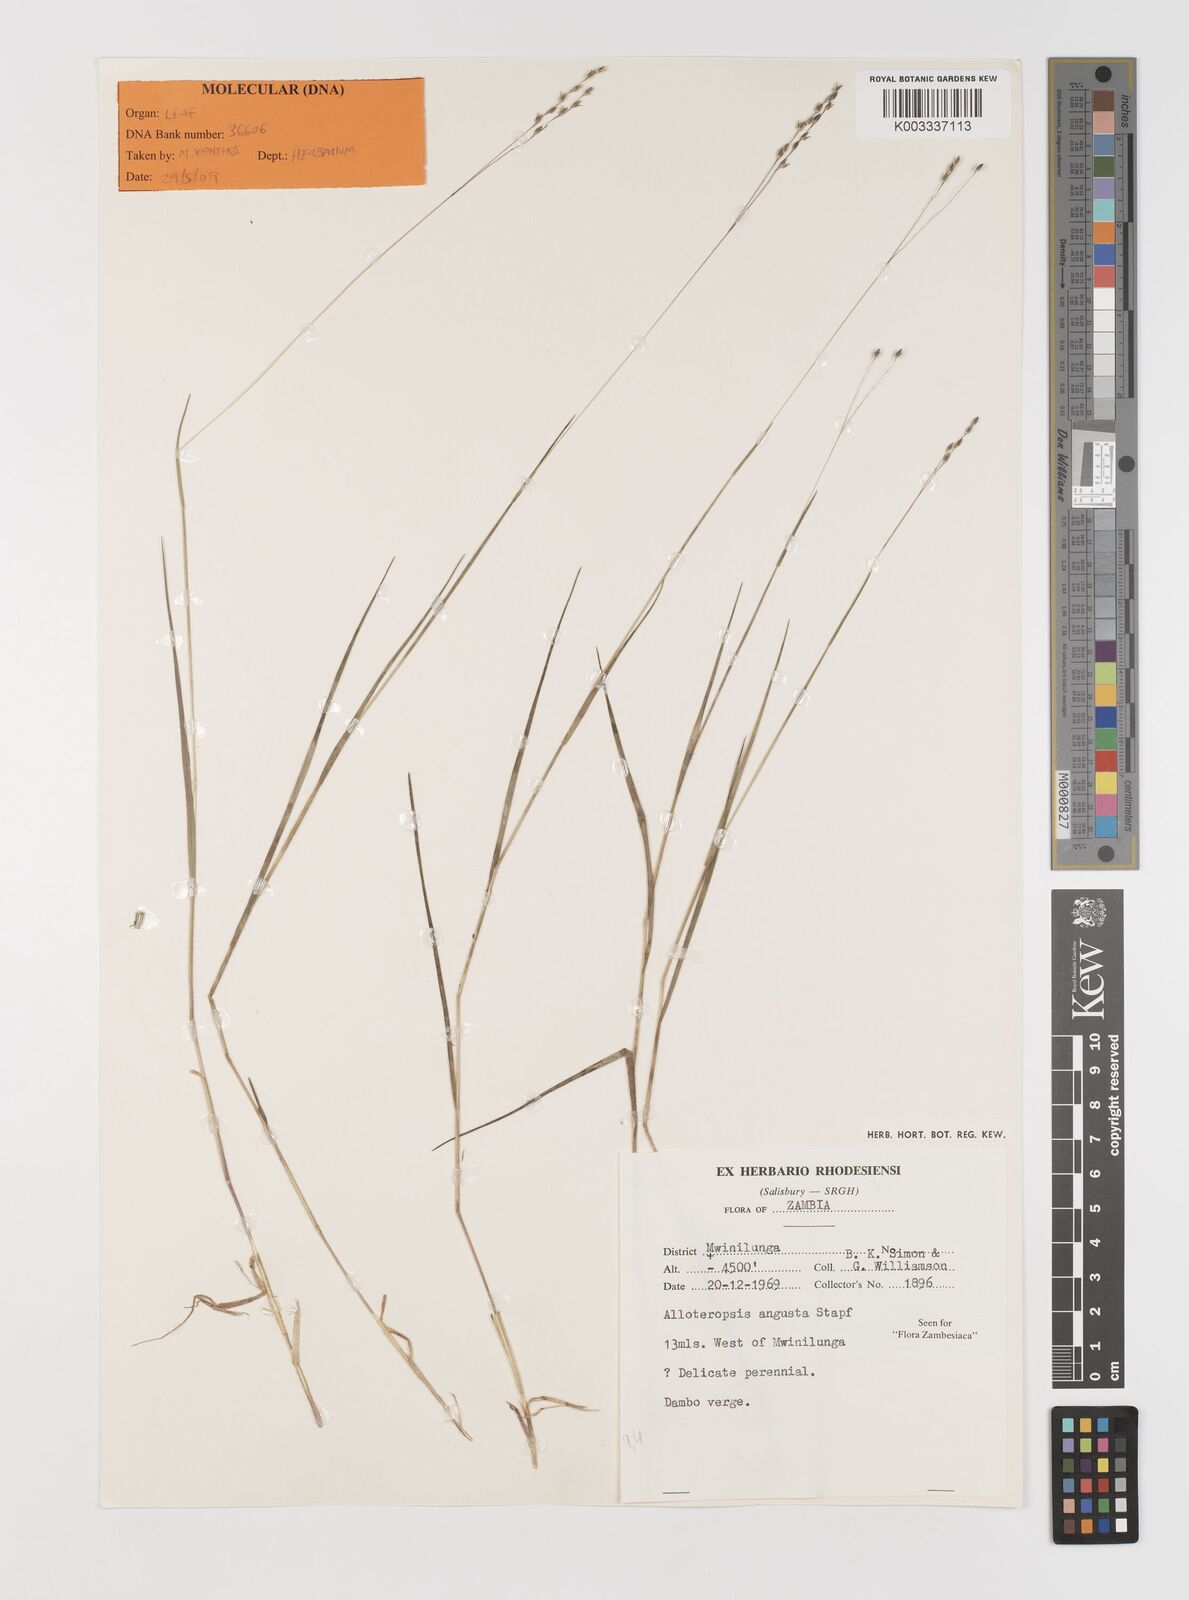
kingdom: Plantae
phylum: Tracheophyta
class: Liliopsida
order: Poales
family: Poaceae
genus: Alloteropsis
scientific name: Alloteropsis angusta
